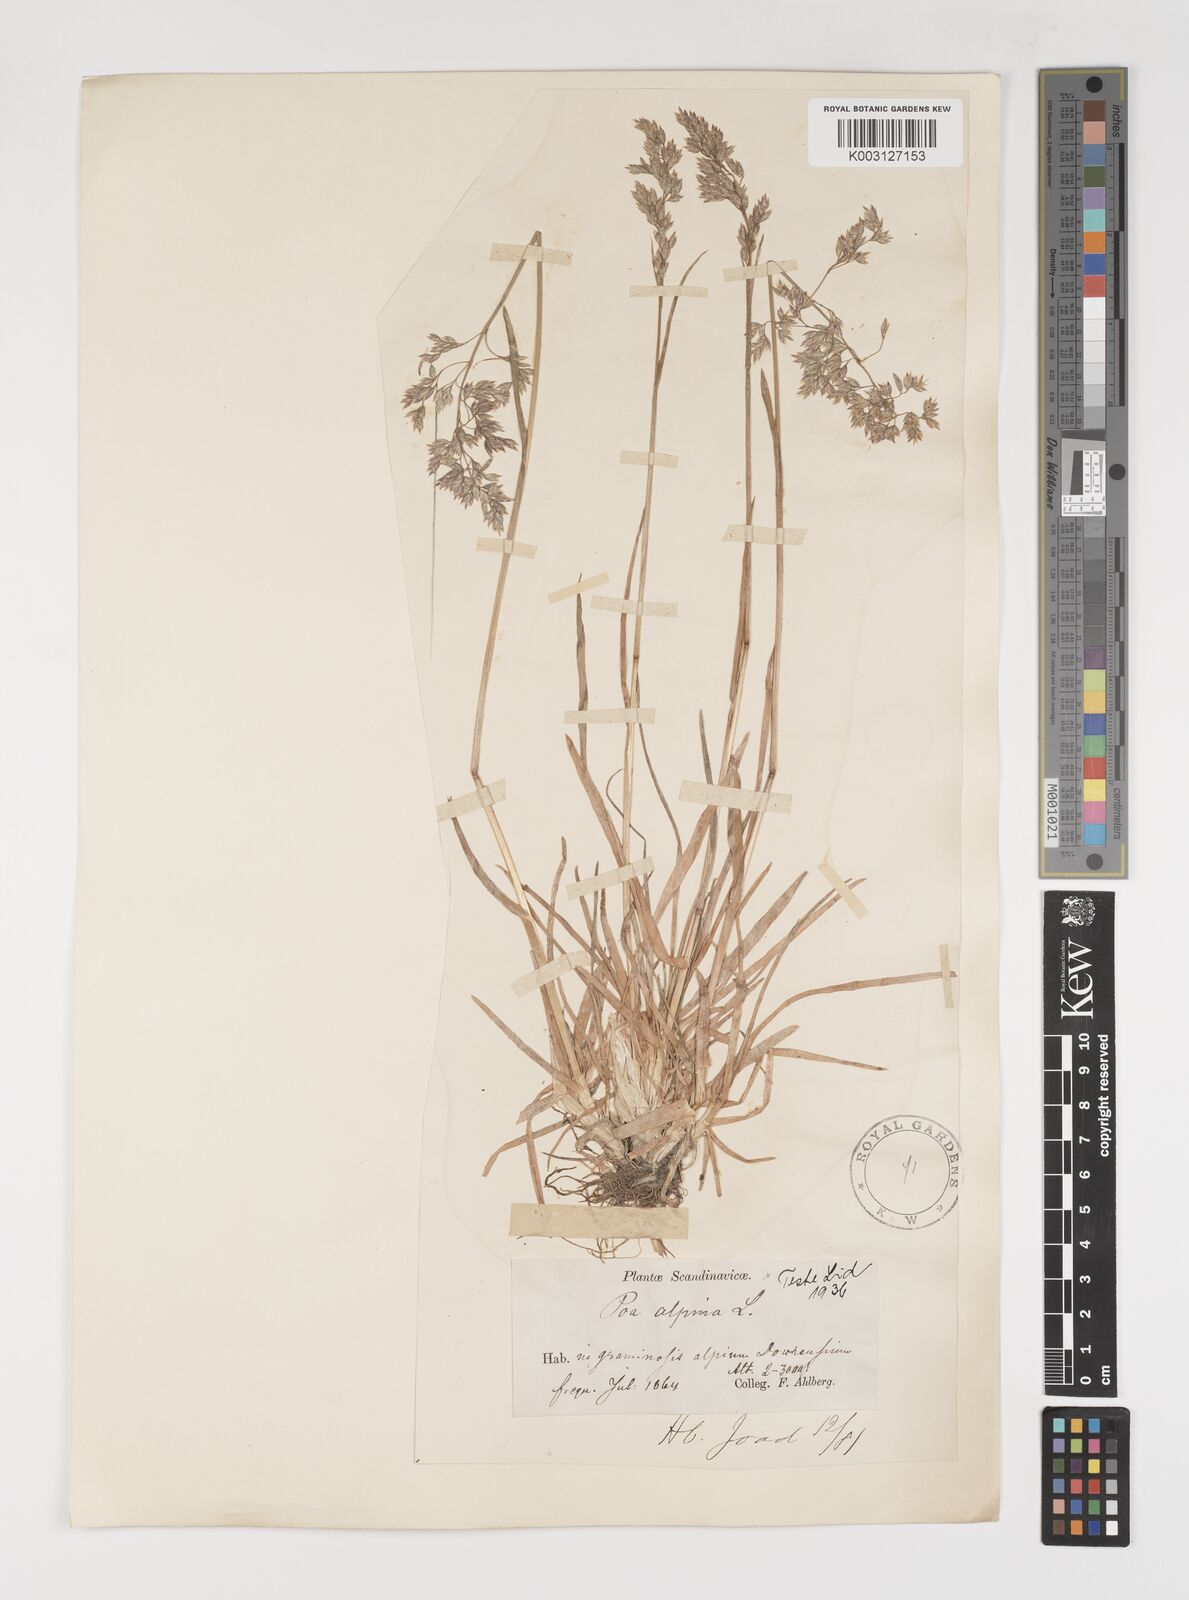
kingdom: Plantae
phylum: Tracheophyta
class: Liliopsida
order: Poales
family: Poaceae
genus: Poa
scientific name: Poa alpina
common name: Alpine bluegrass
